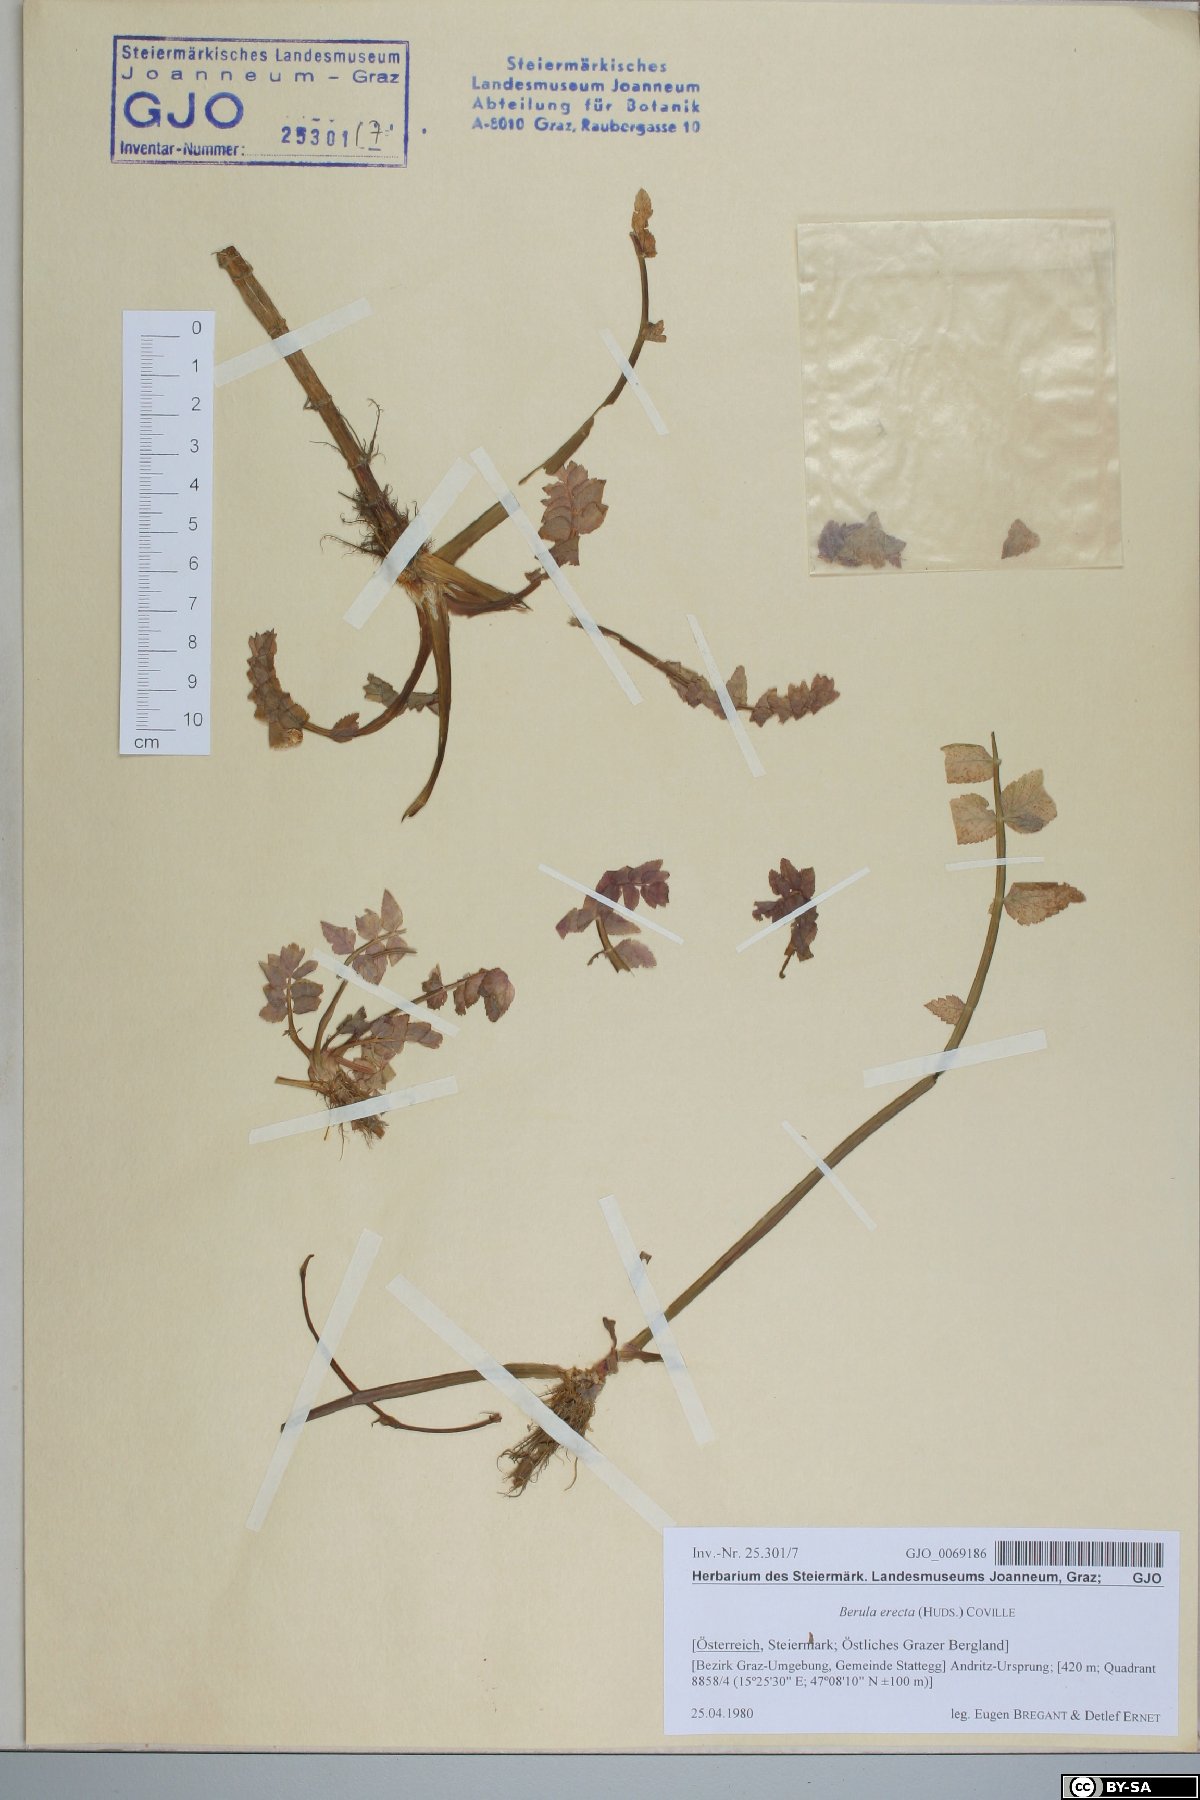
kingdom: Plantae
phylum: Tracheophyta
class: Magnoliopsida
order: Apiales
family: Apiaceae
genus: Berula
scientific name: Berula erecta
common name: Lesser water-parsnip
